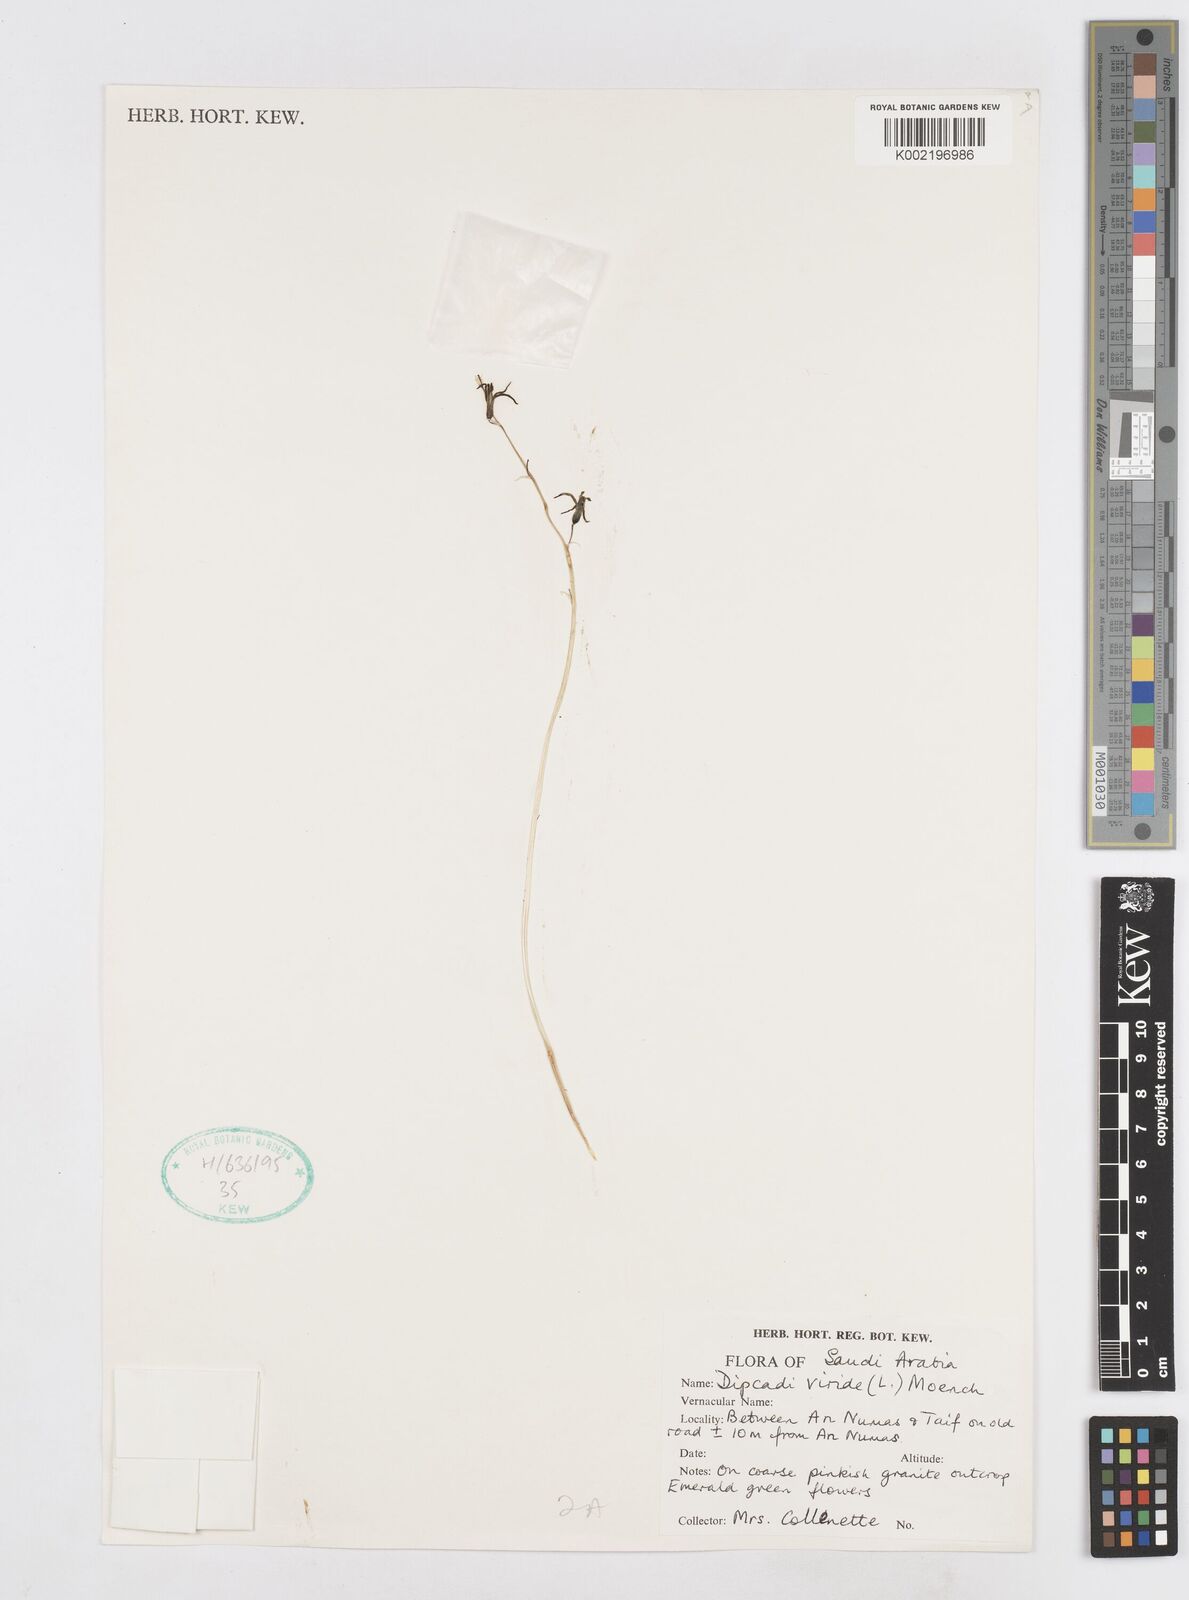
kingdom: Plantae
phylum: Tracheophyta
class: Liliopsida
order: Asparagales
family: Asparagaceae
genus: Dipcadi
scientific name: Dipcadi viride
